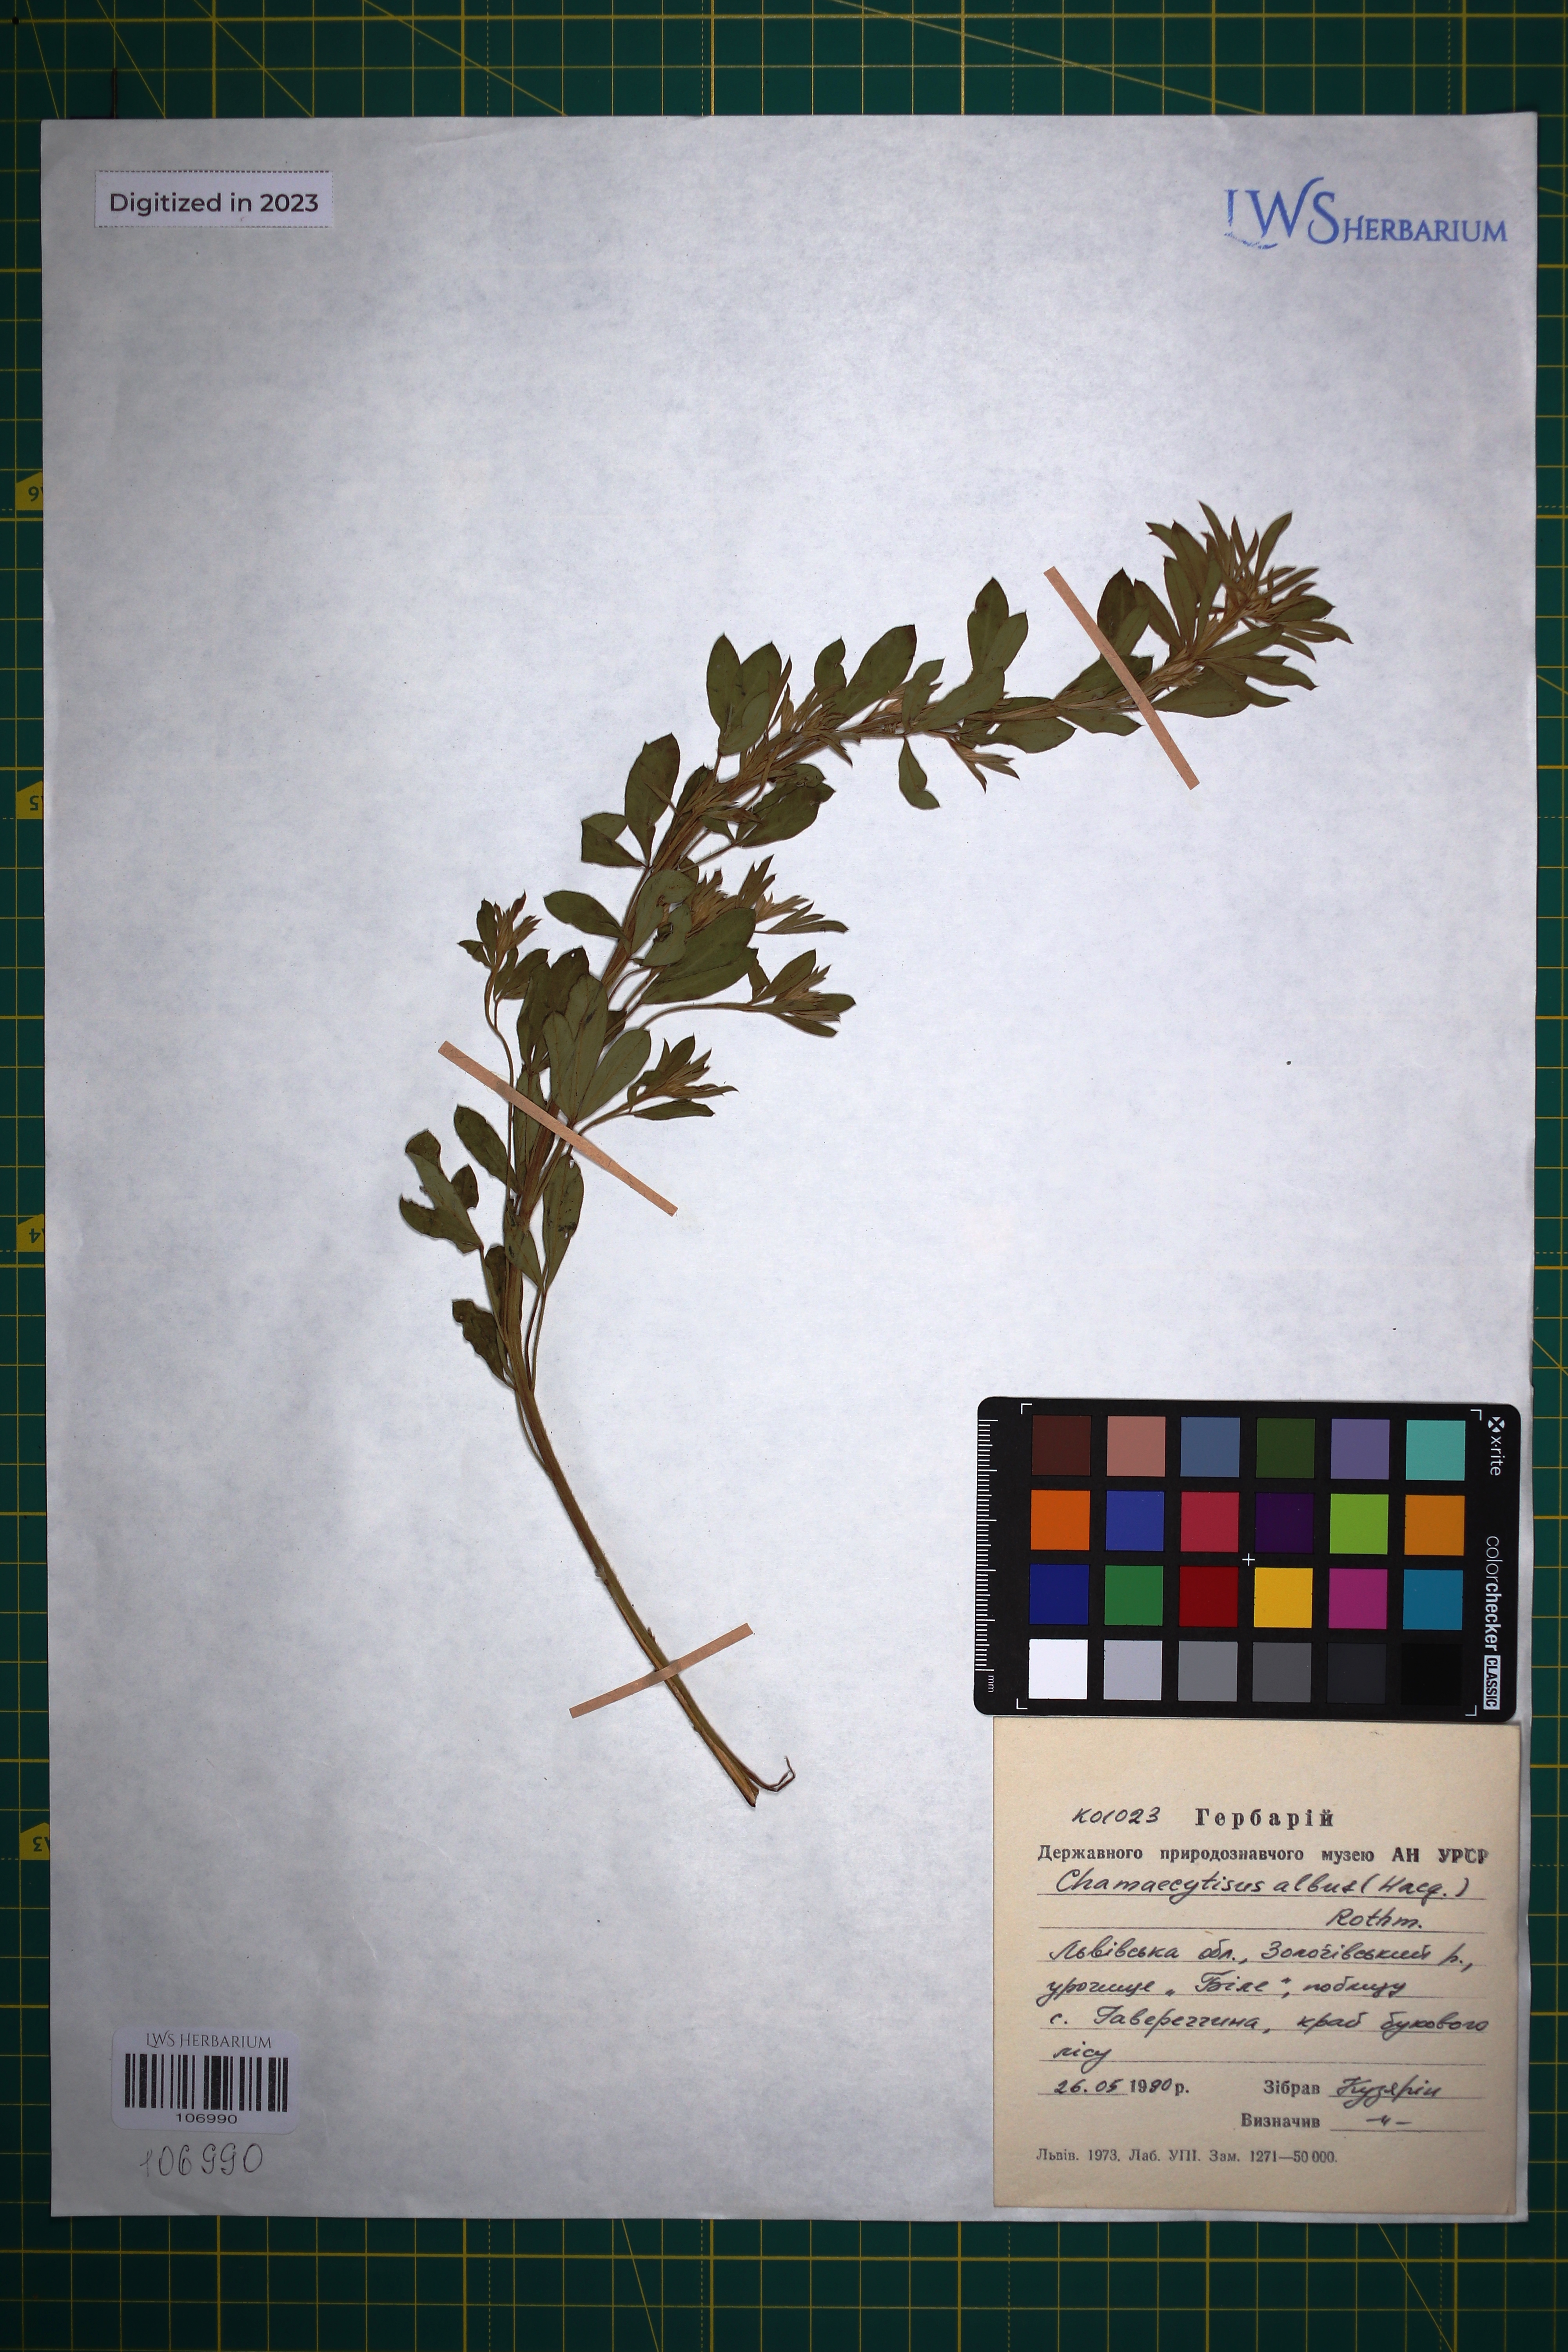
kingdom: Plantae
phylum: Tracheophyta
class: Magnoliopsida
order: Fabales
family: Fabaceae
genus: Chamaecytisus
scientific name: Chamaecytisus albus
